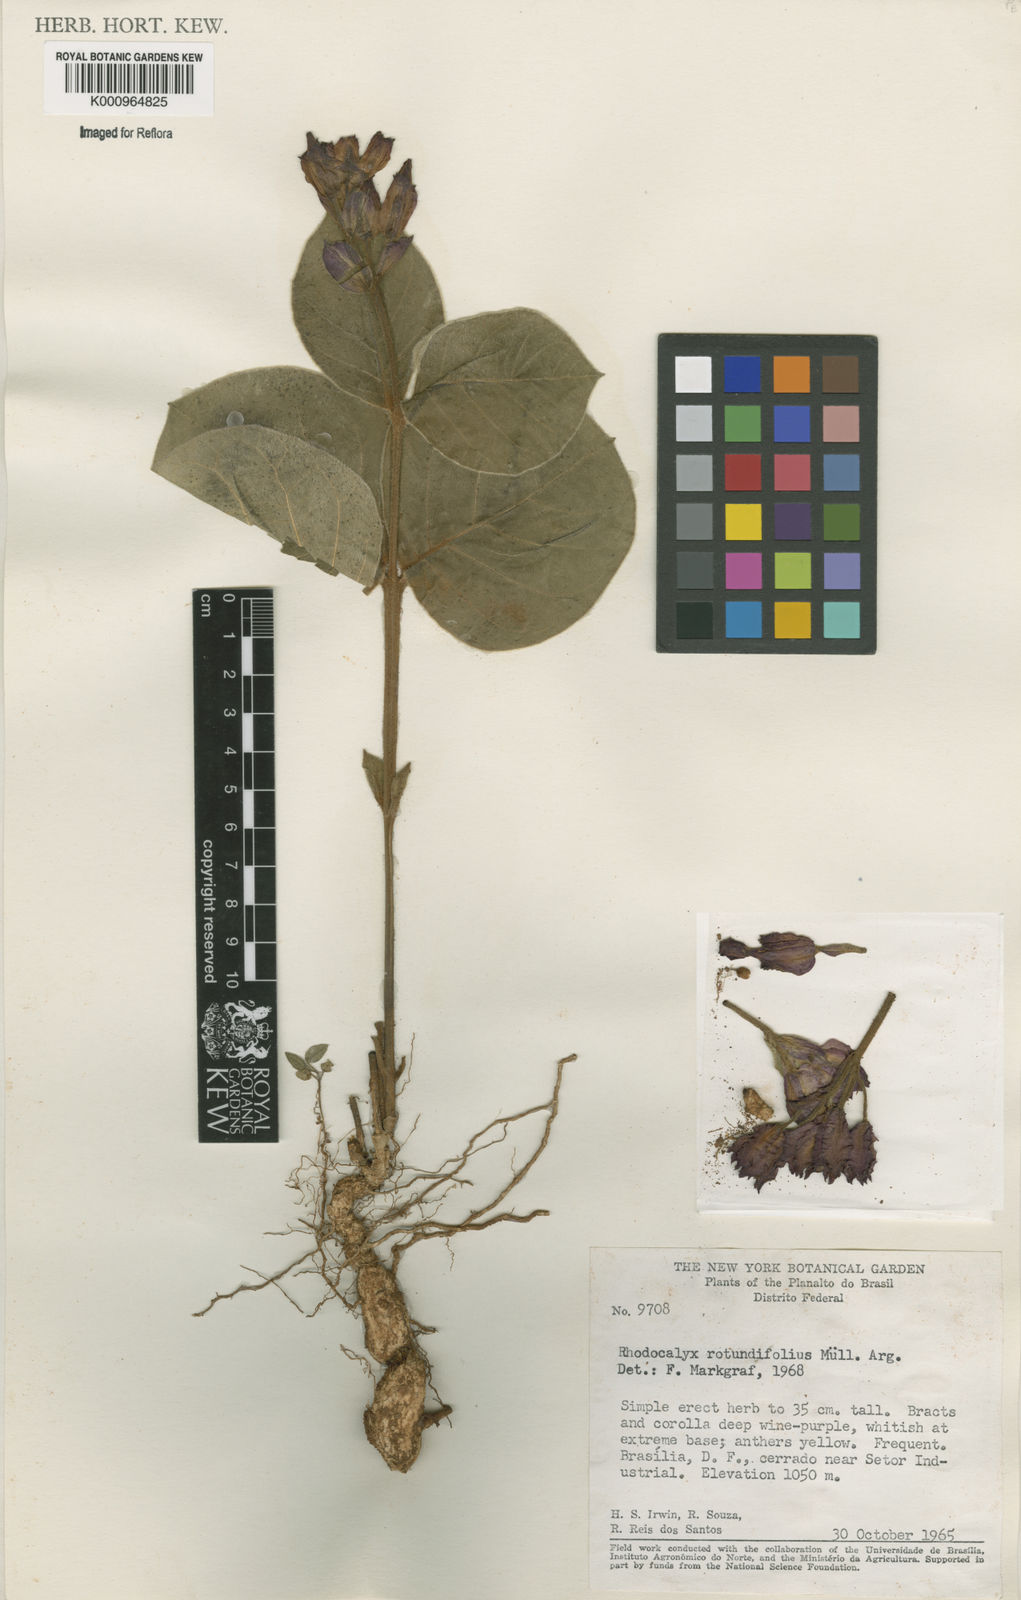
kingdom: Plantae
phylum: Tracheophyta
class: Magnoliopsida
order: Gentianales
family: Apocynaceae
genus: Rhodocalyx
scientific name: Rhodocalyx
